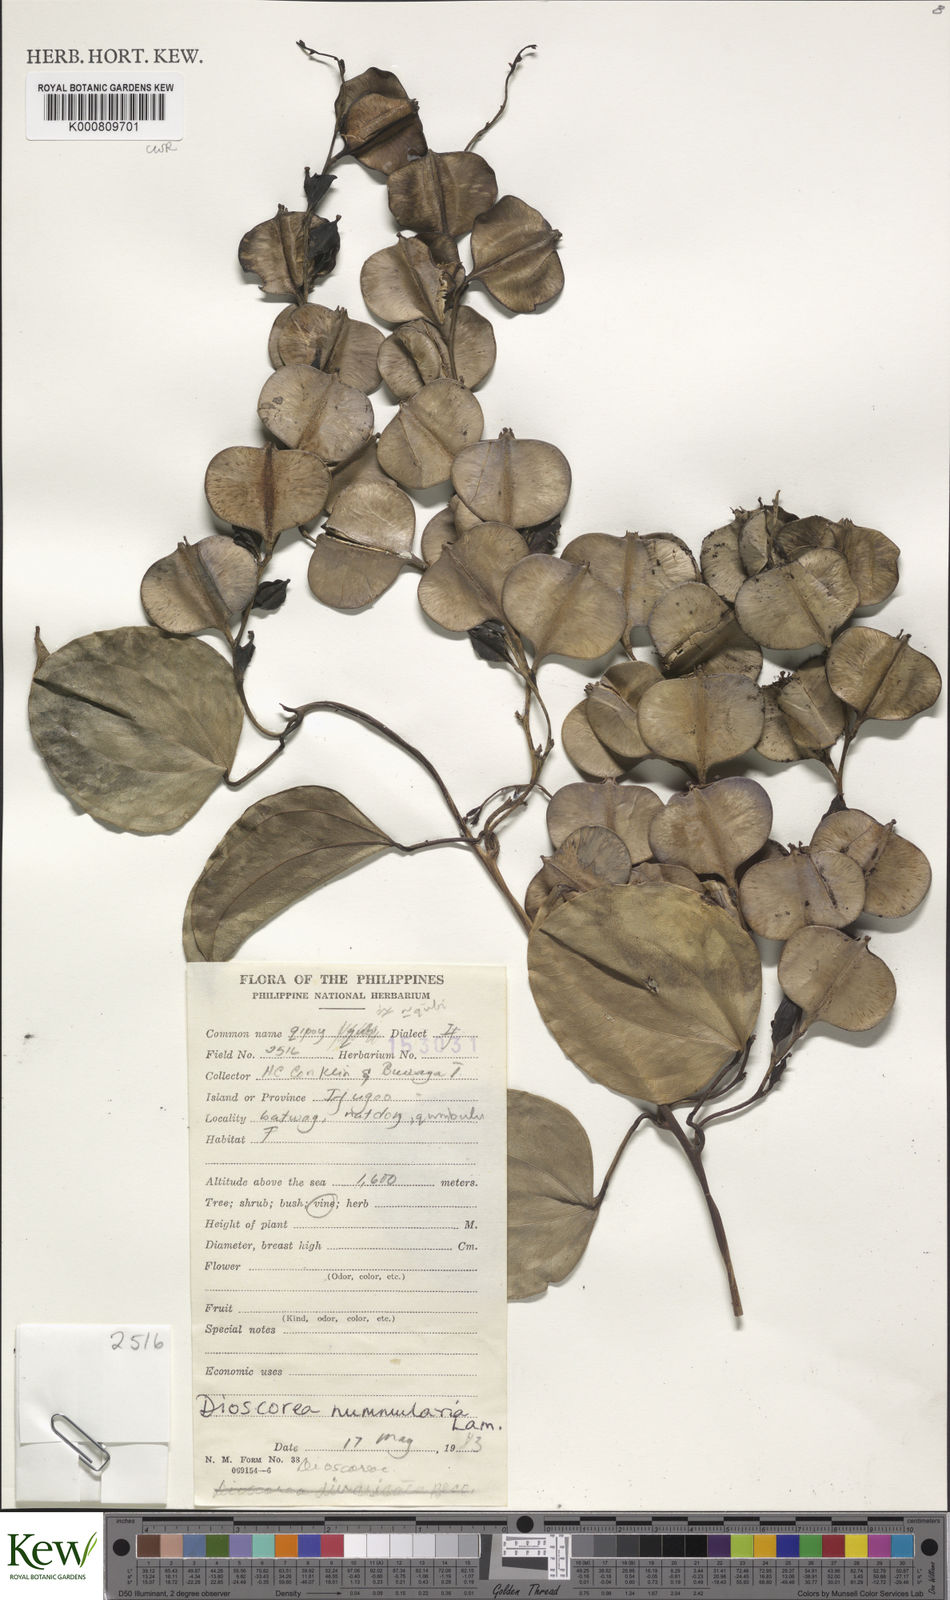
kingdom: Plantae
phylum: Tracheophyta
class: Liliopsida
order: Dioscoreales
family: Dioscoreaceae
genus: Dioscorea
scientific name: Dioscorea nummularia
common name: Pacific yam
